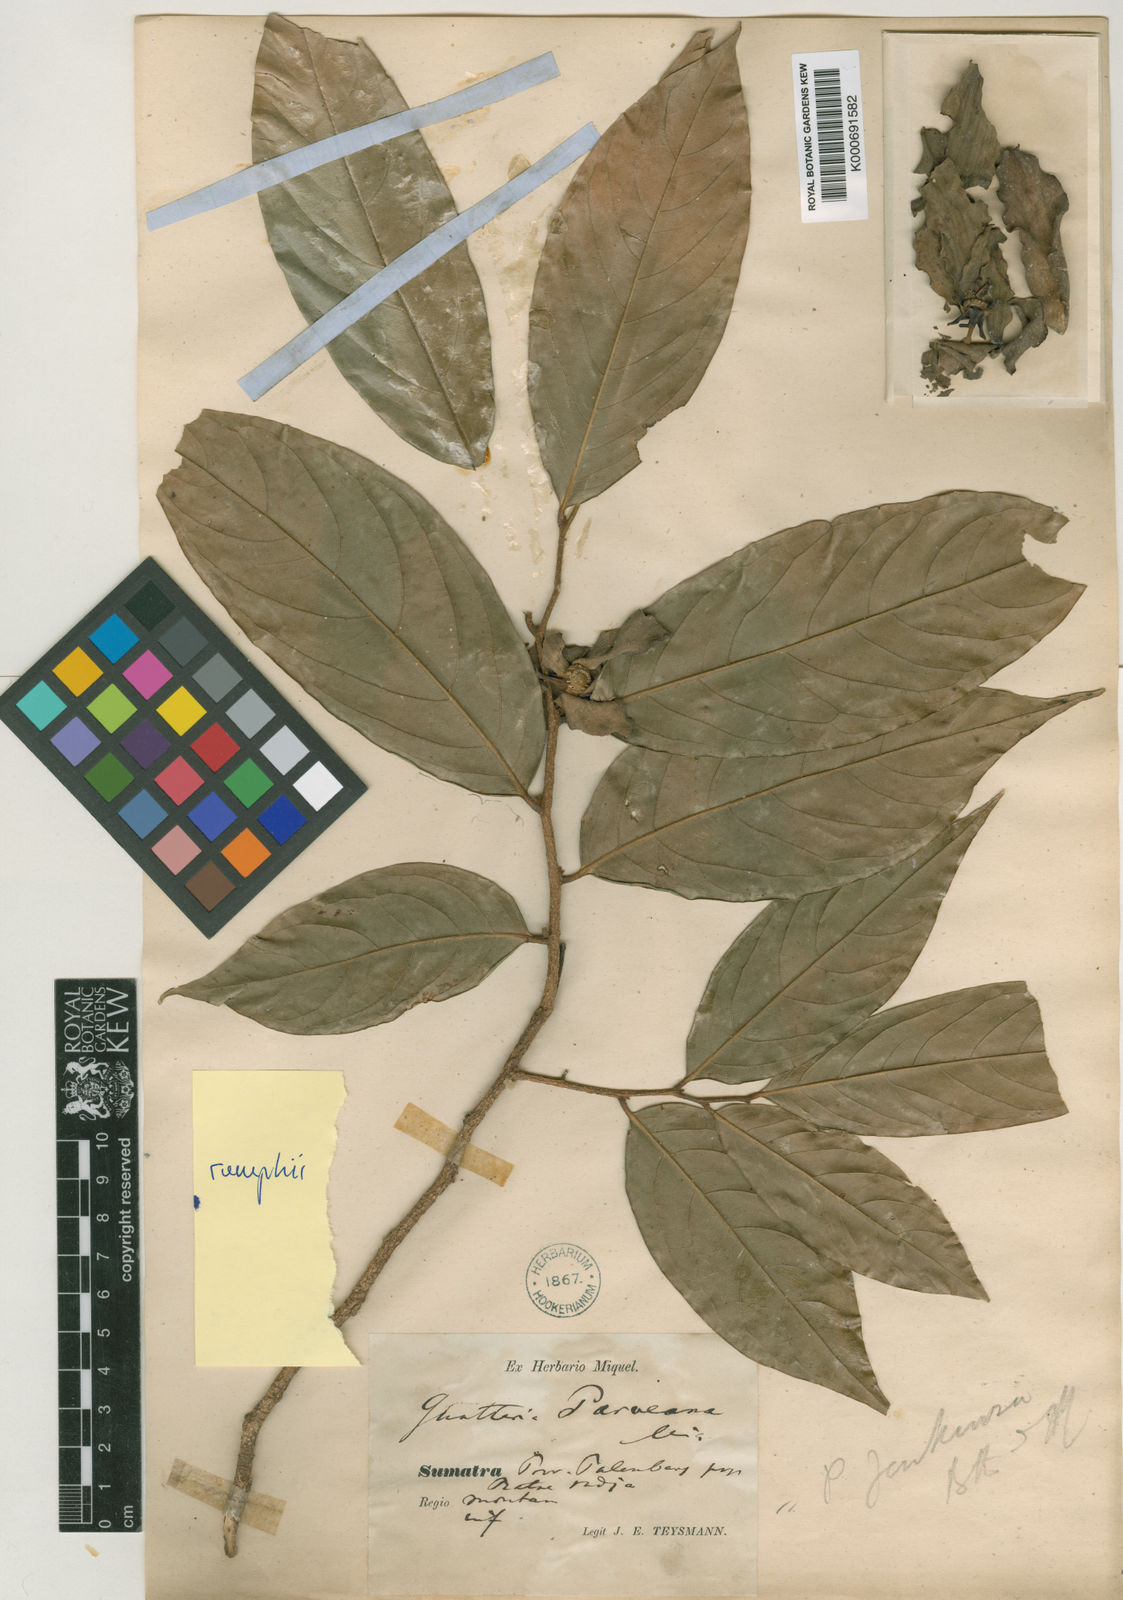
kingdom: Plantae
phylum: Tracheophyta
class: Magnoliopsida
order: Magnoliales
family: Annonaceae
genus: Hubera
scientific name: Hubera rumphii
